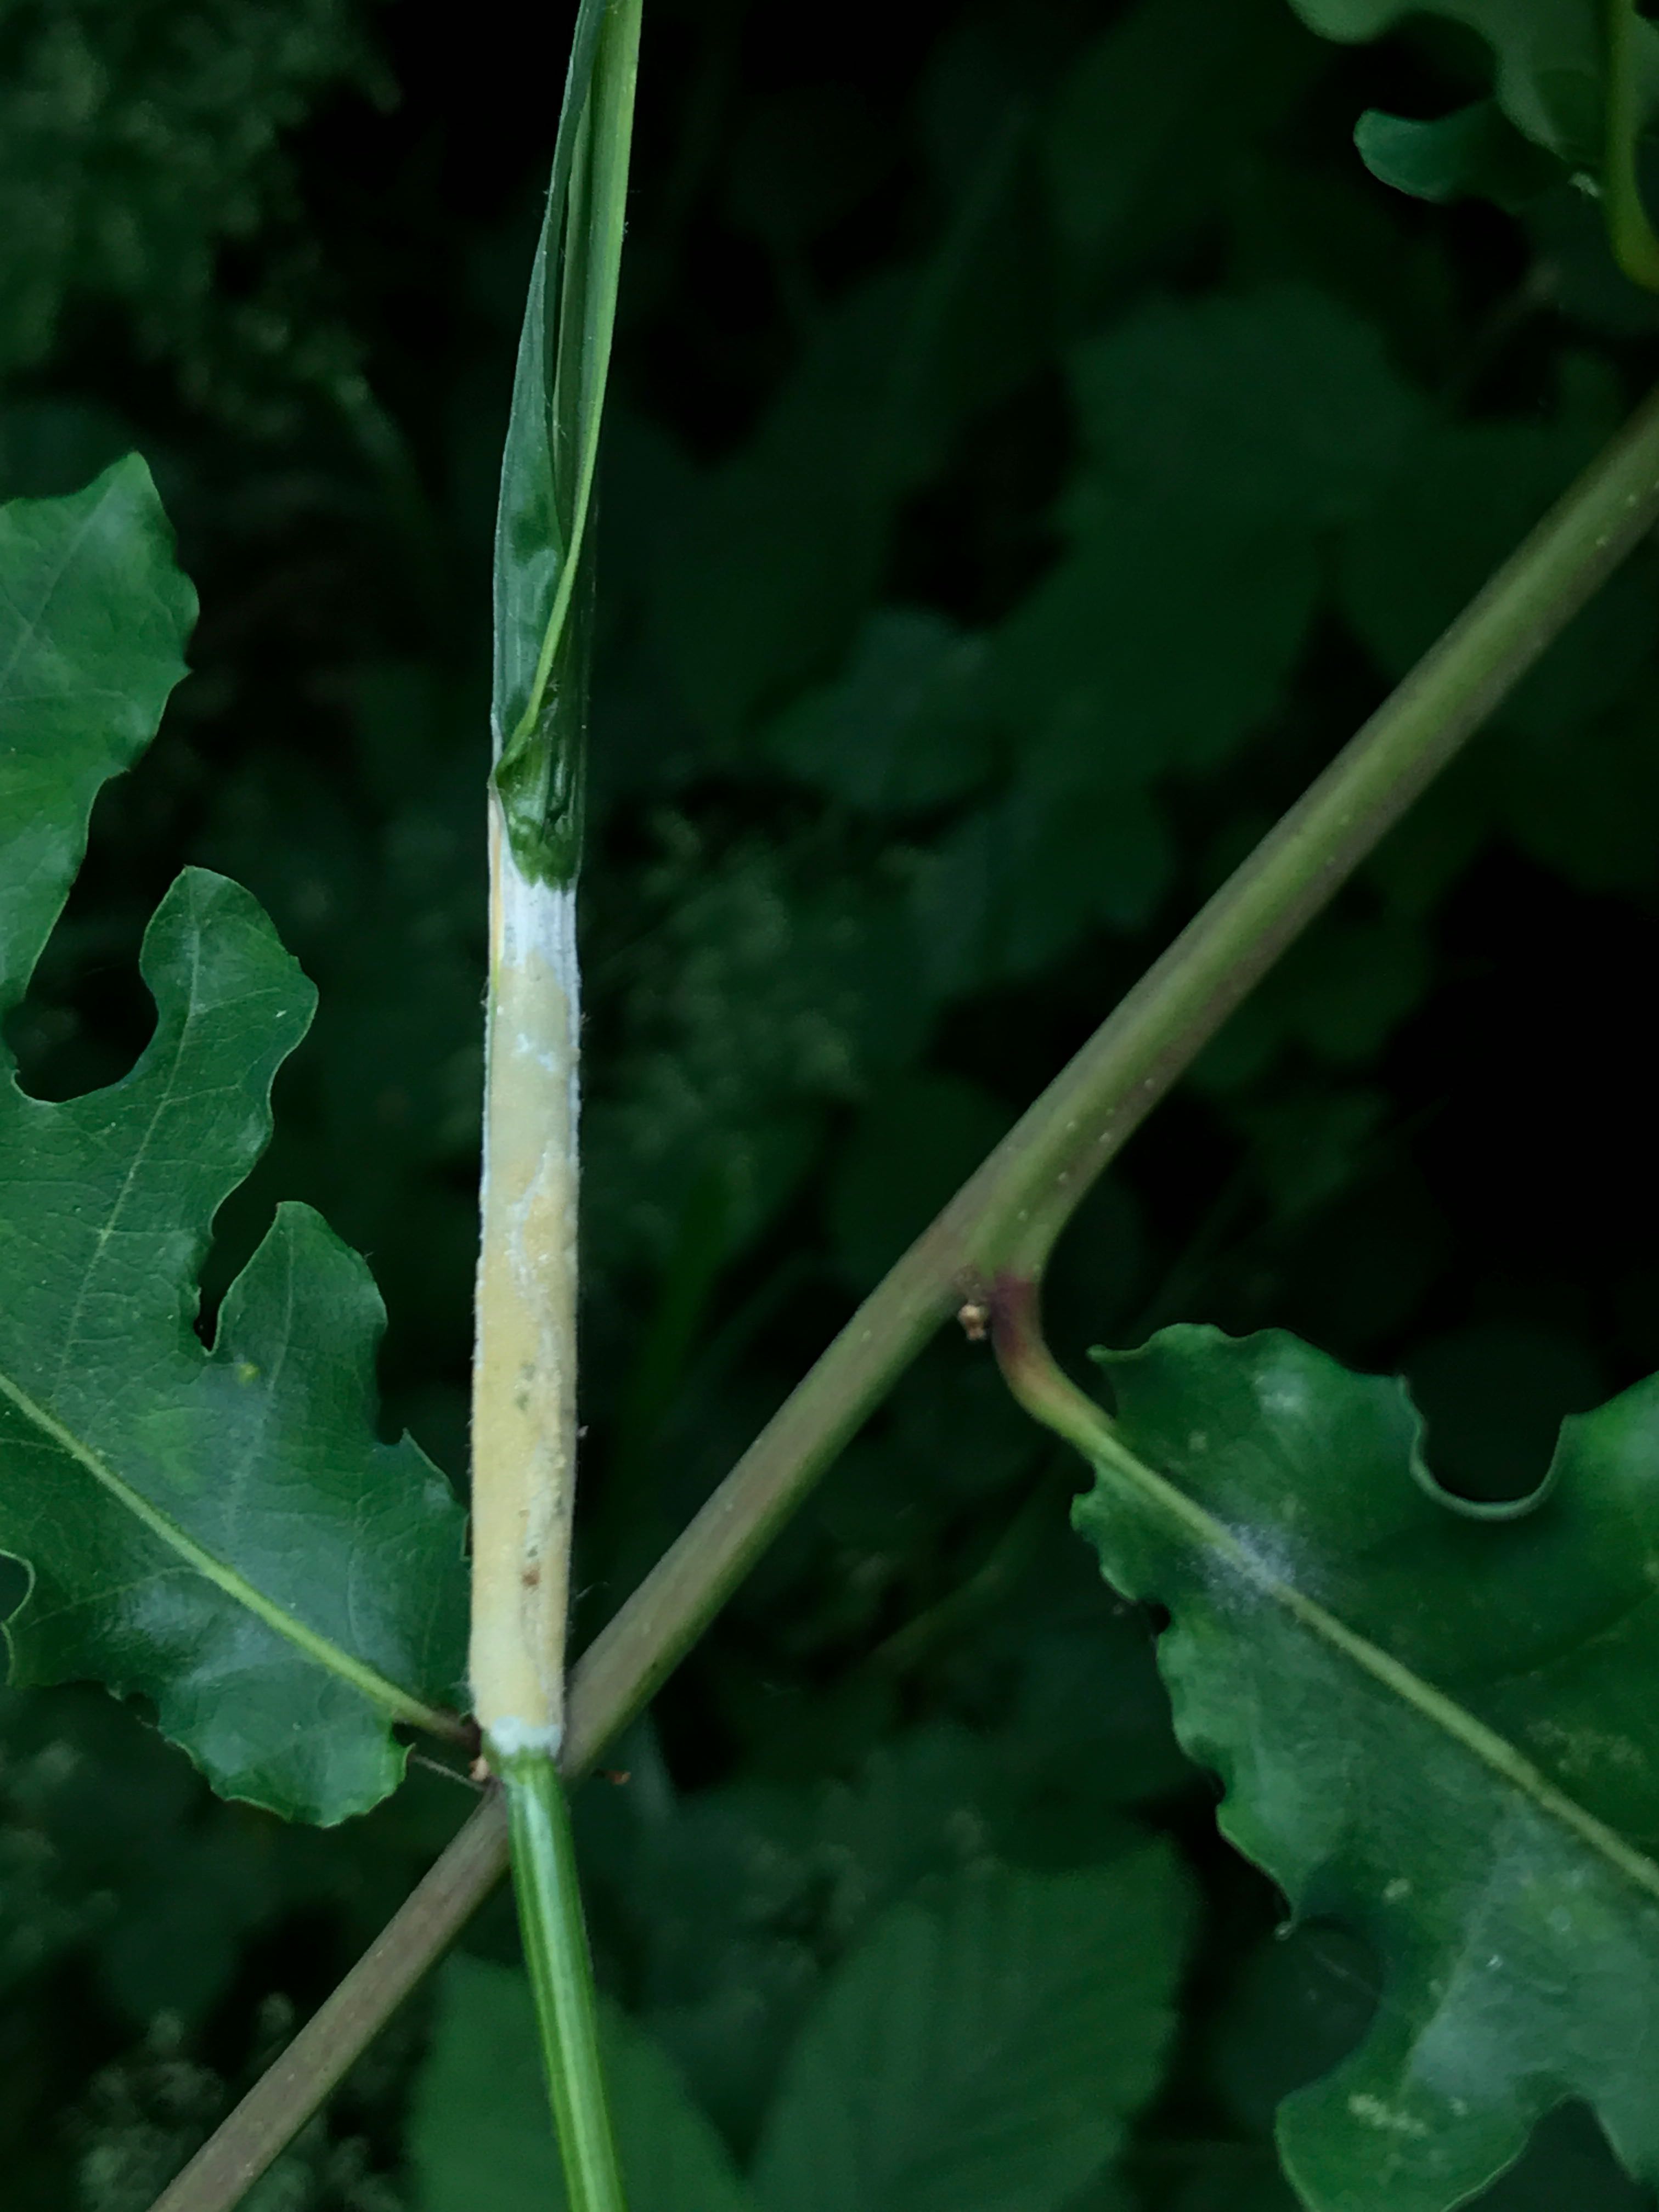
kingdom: Fungi
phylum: Ascomycota
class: Sordariomycetes
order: Hypocreales
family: Clavicipitaceae
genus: Epichloe
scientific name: Epichloe
